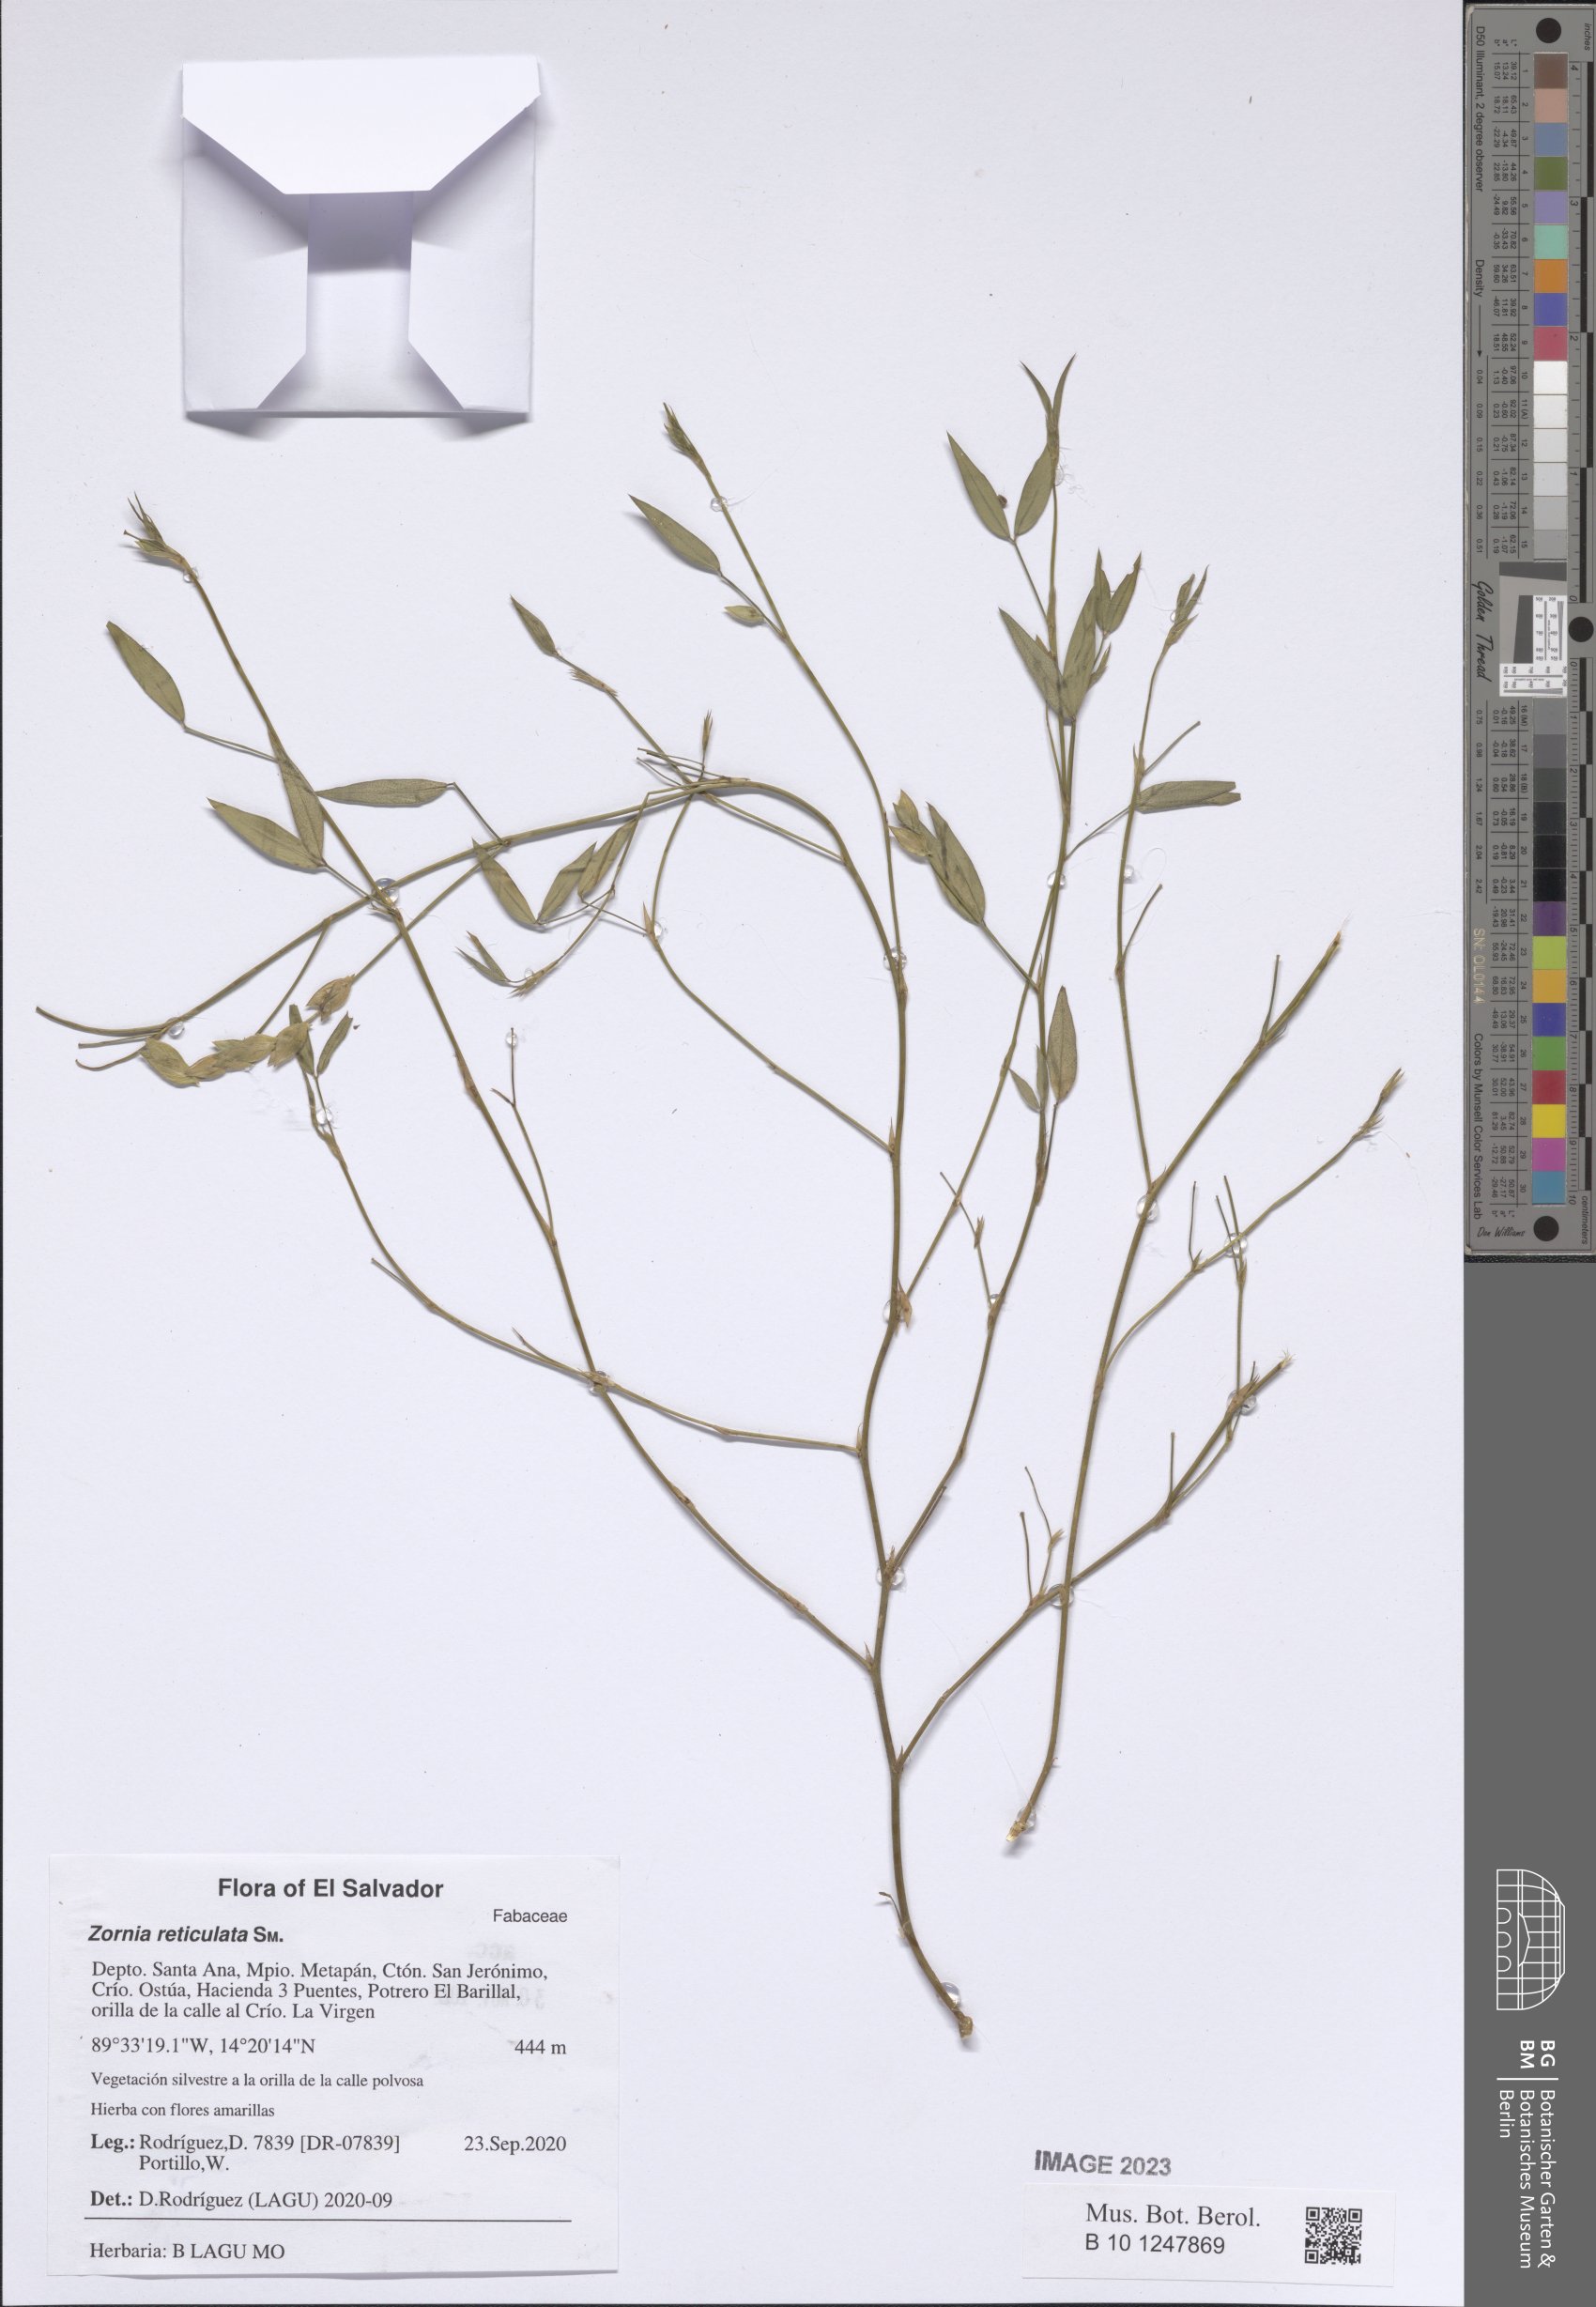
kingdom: Plantae
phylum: Tracheophyta
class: Magnoliopsida
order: Fabales
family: Fabaceae
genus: Zornia
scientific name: Zornia reticulata
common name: Reticulate viperina
